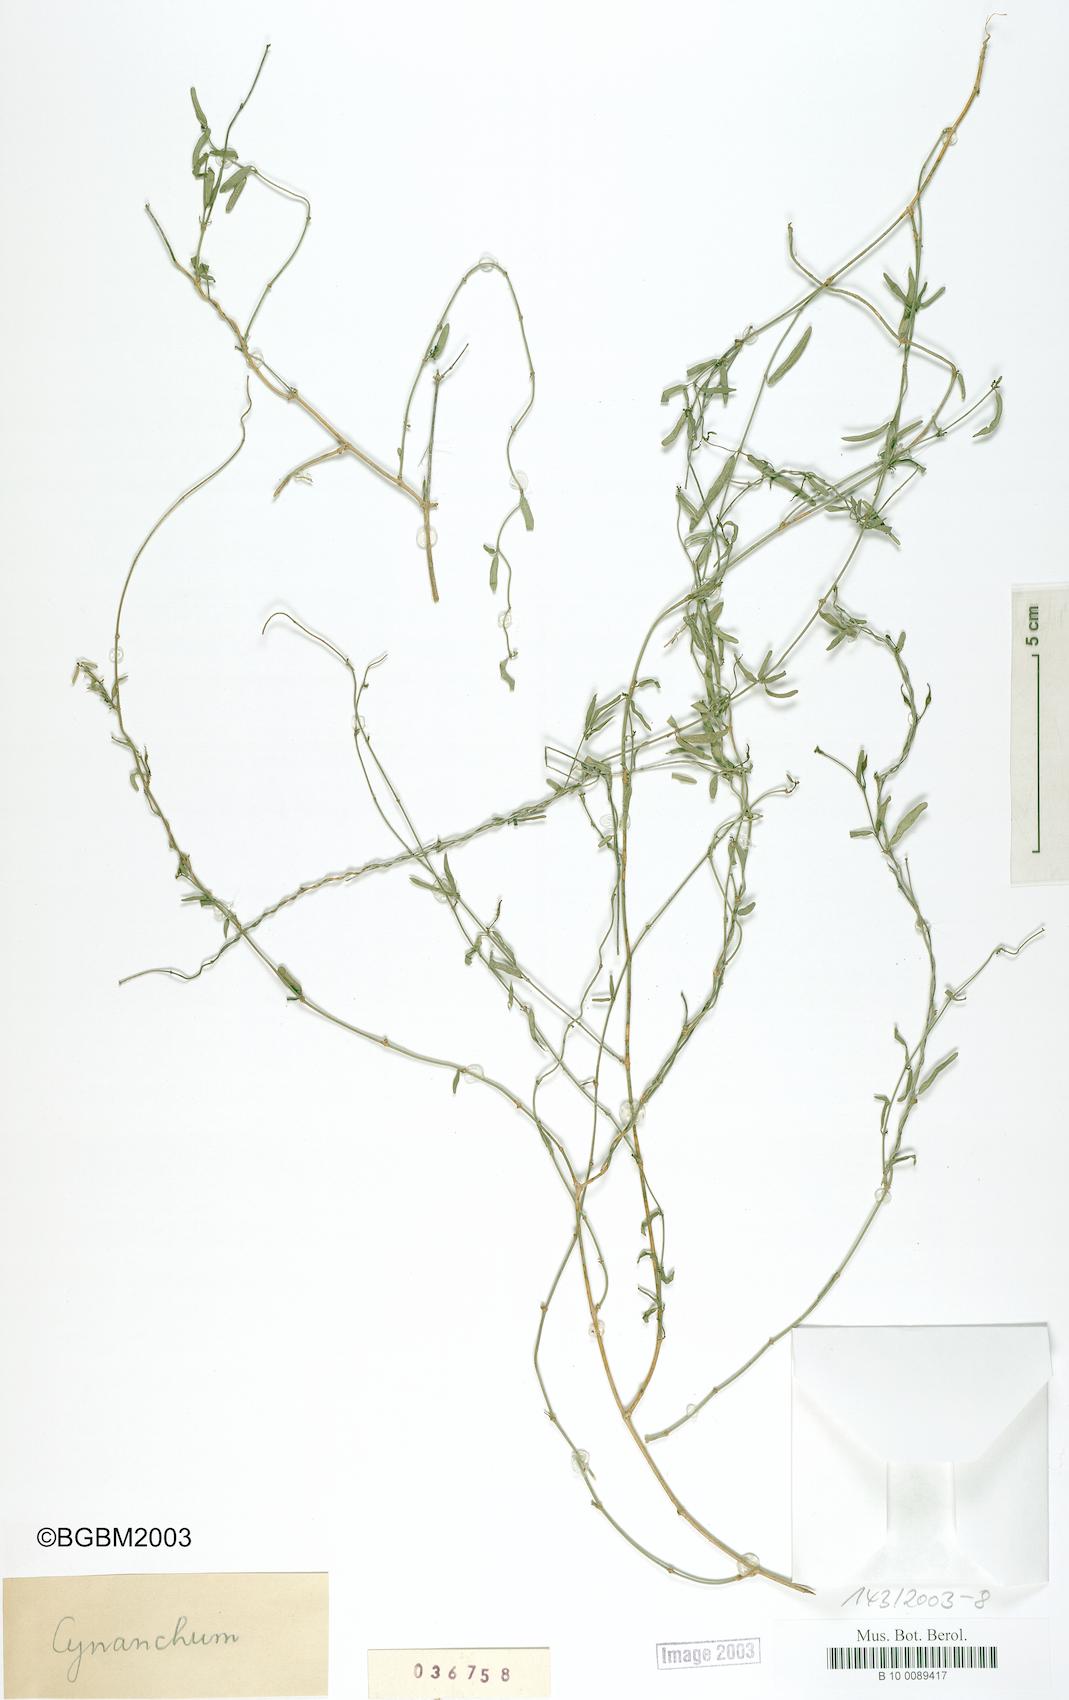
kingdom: Plantae
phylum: Tracheophyta
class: Magnoliopsida
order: Gentianales
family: Apocynaceae
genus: Metastelma
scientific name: Metastelma
